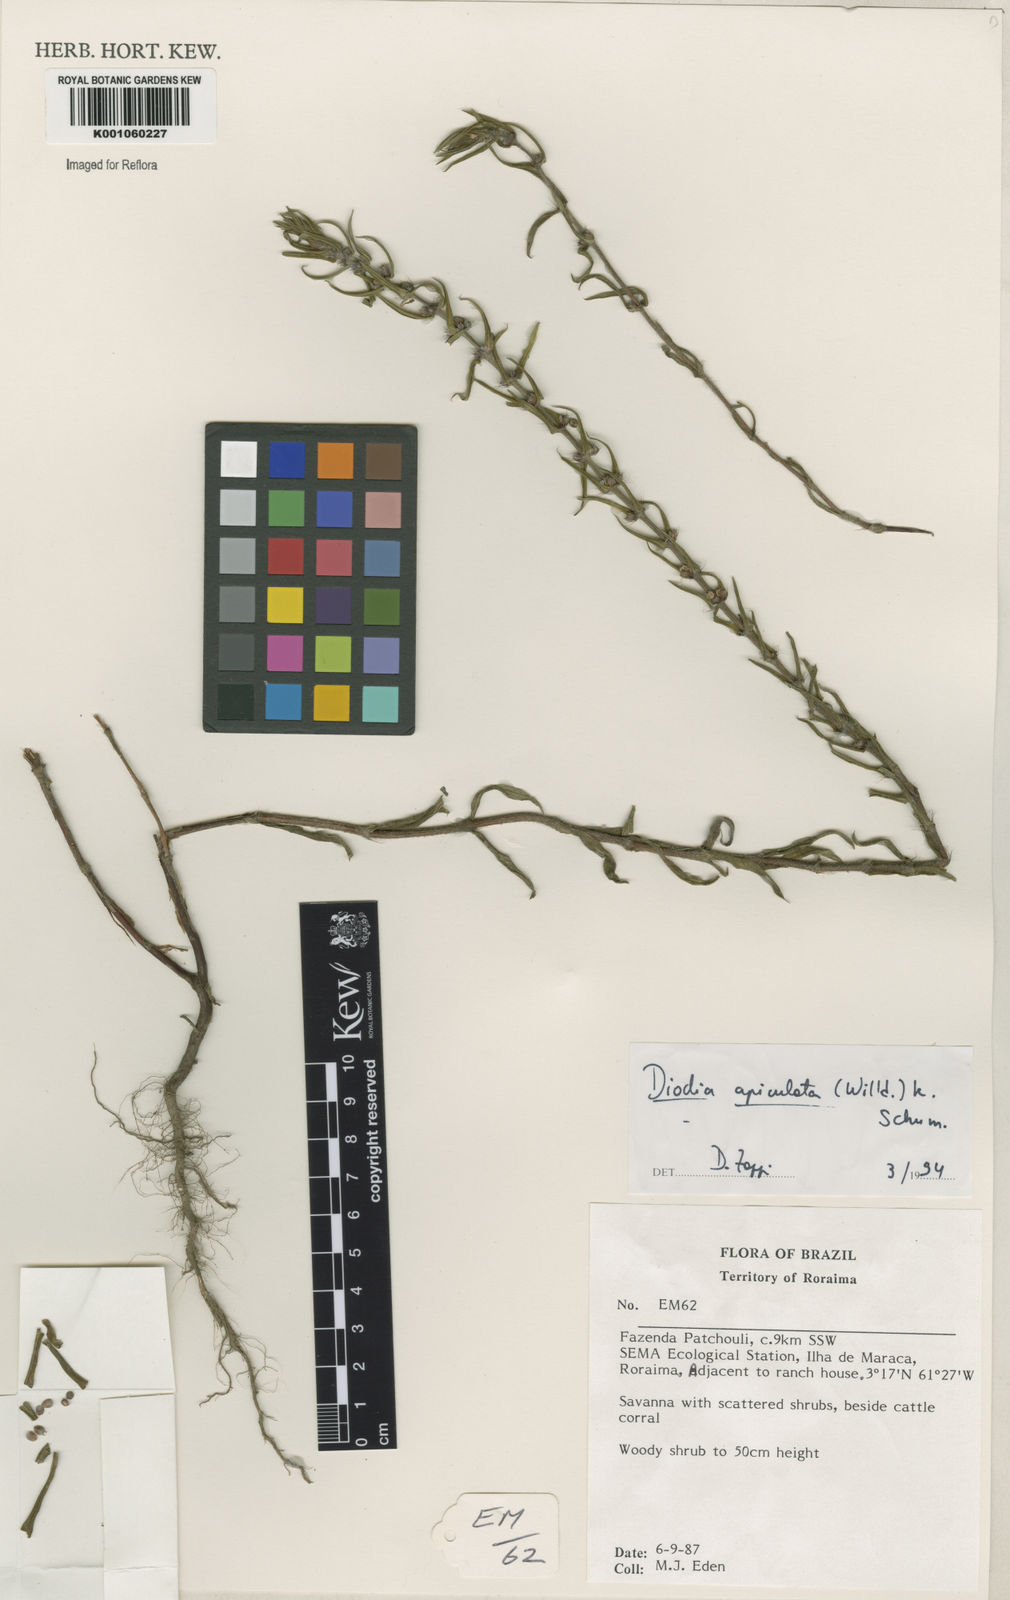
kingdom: Plantae
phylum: Tracheophyta
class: Magnoliopsida
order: Gentianales
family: Rubiaceae
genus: Hexasepalum
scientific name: Hexasepalum apiculatum
